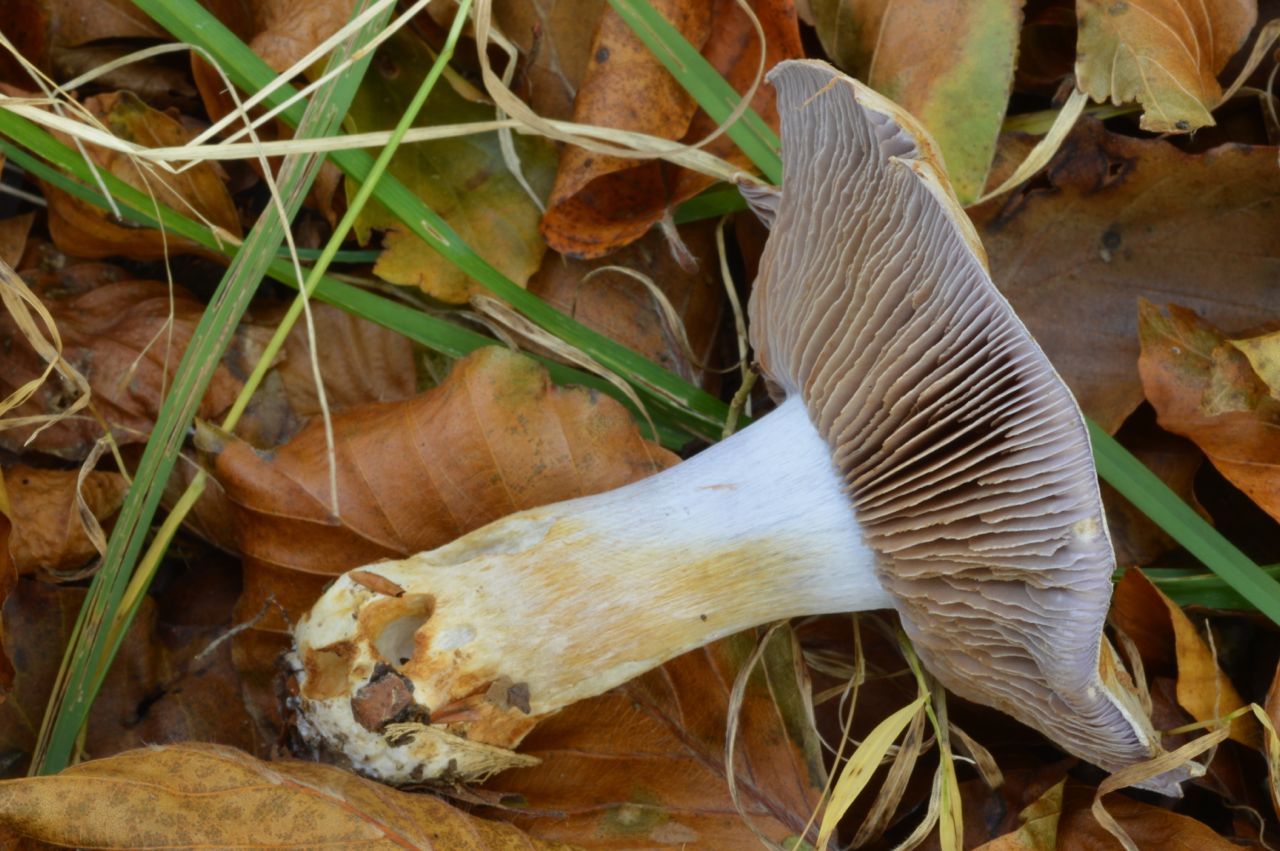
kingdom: Fungi
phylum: Basidiomycota
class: Agaricomycetes
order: Agaricales
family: Cortinariaceae
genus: Thaxterogaster
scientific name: Thaxterogaster argenteolilacinus
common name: sølvskinnende slørhat
